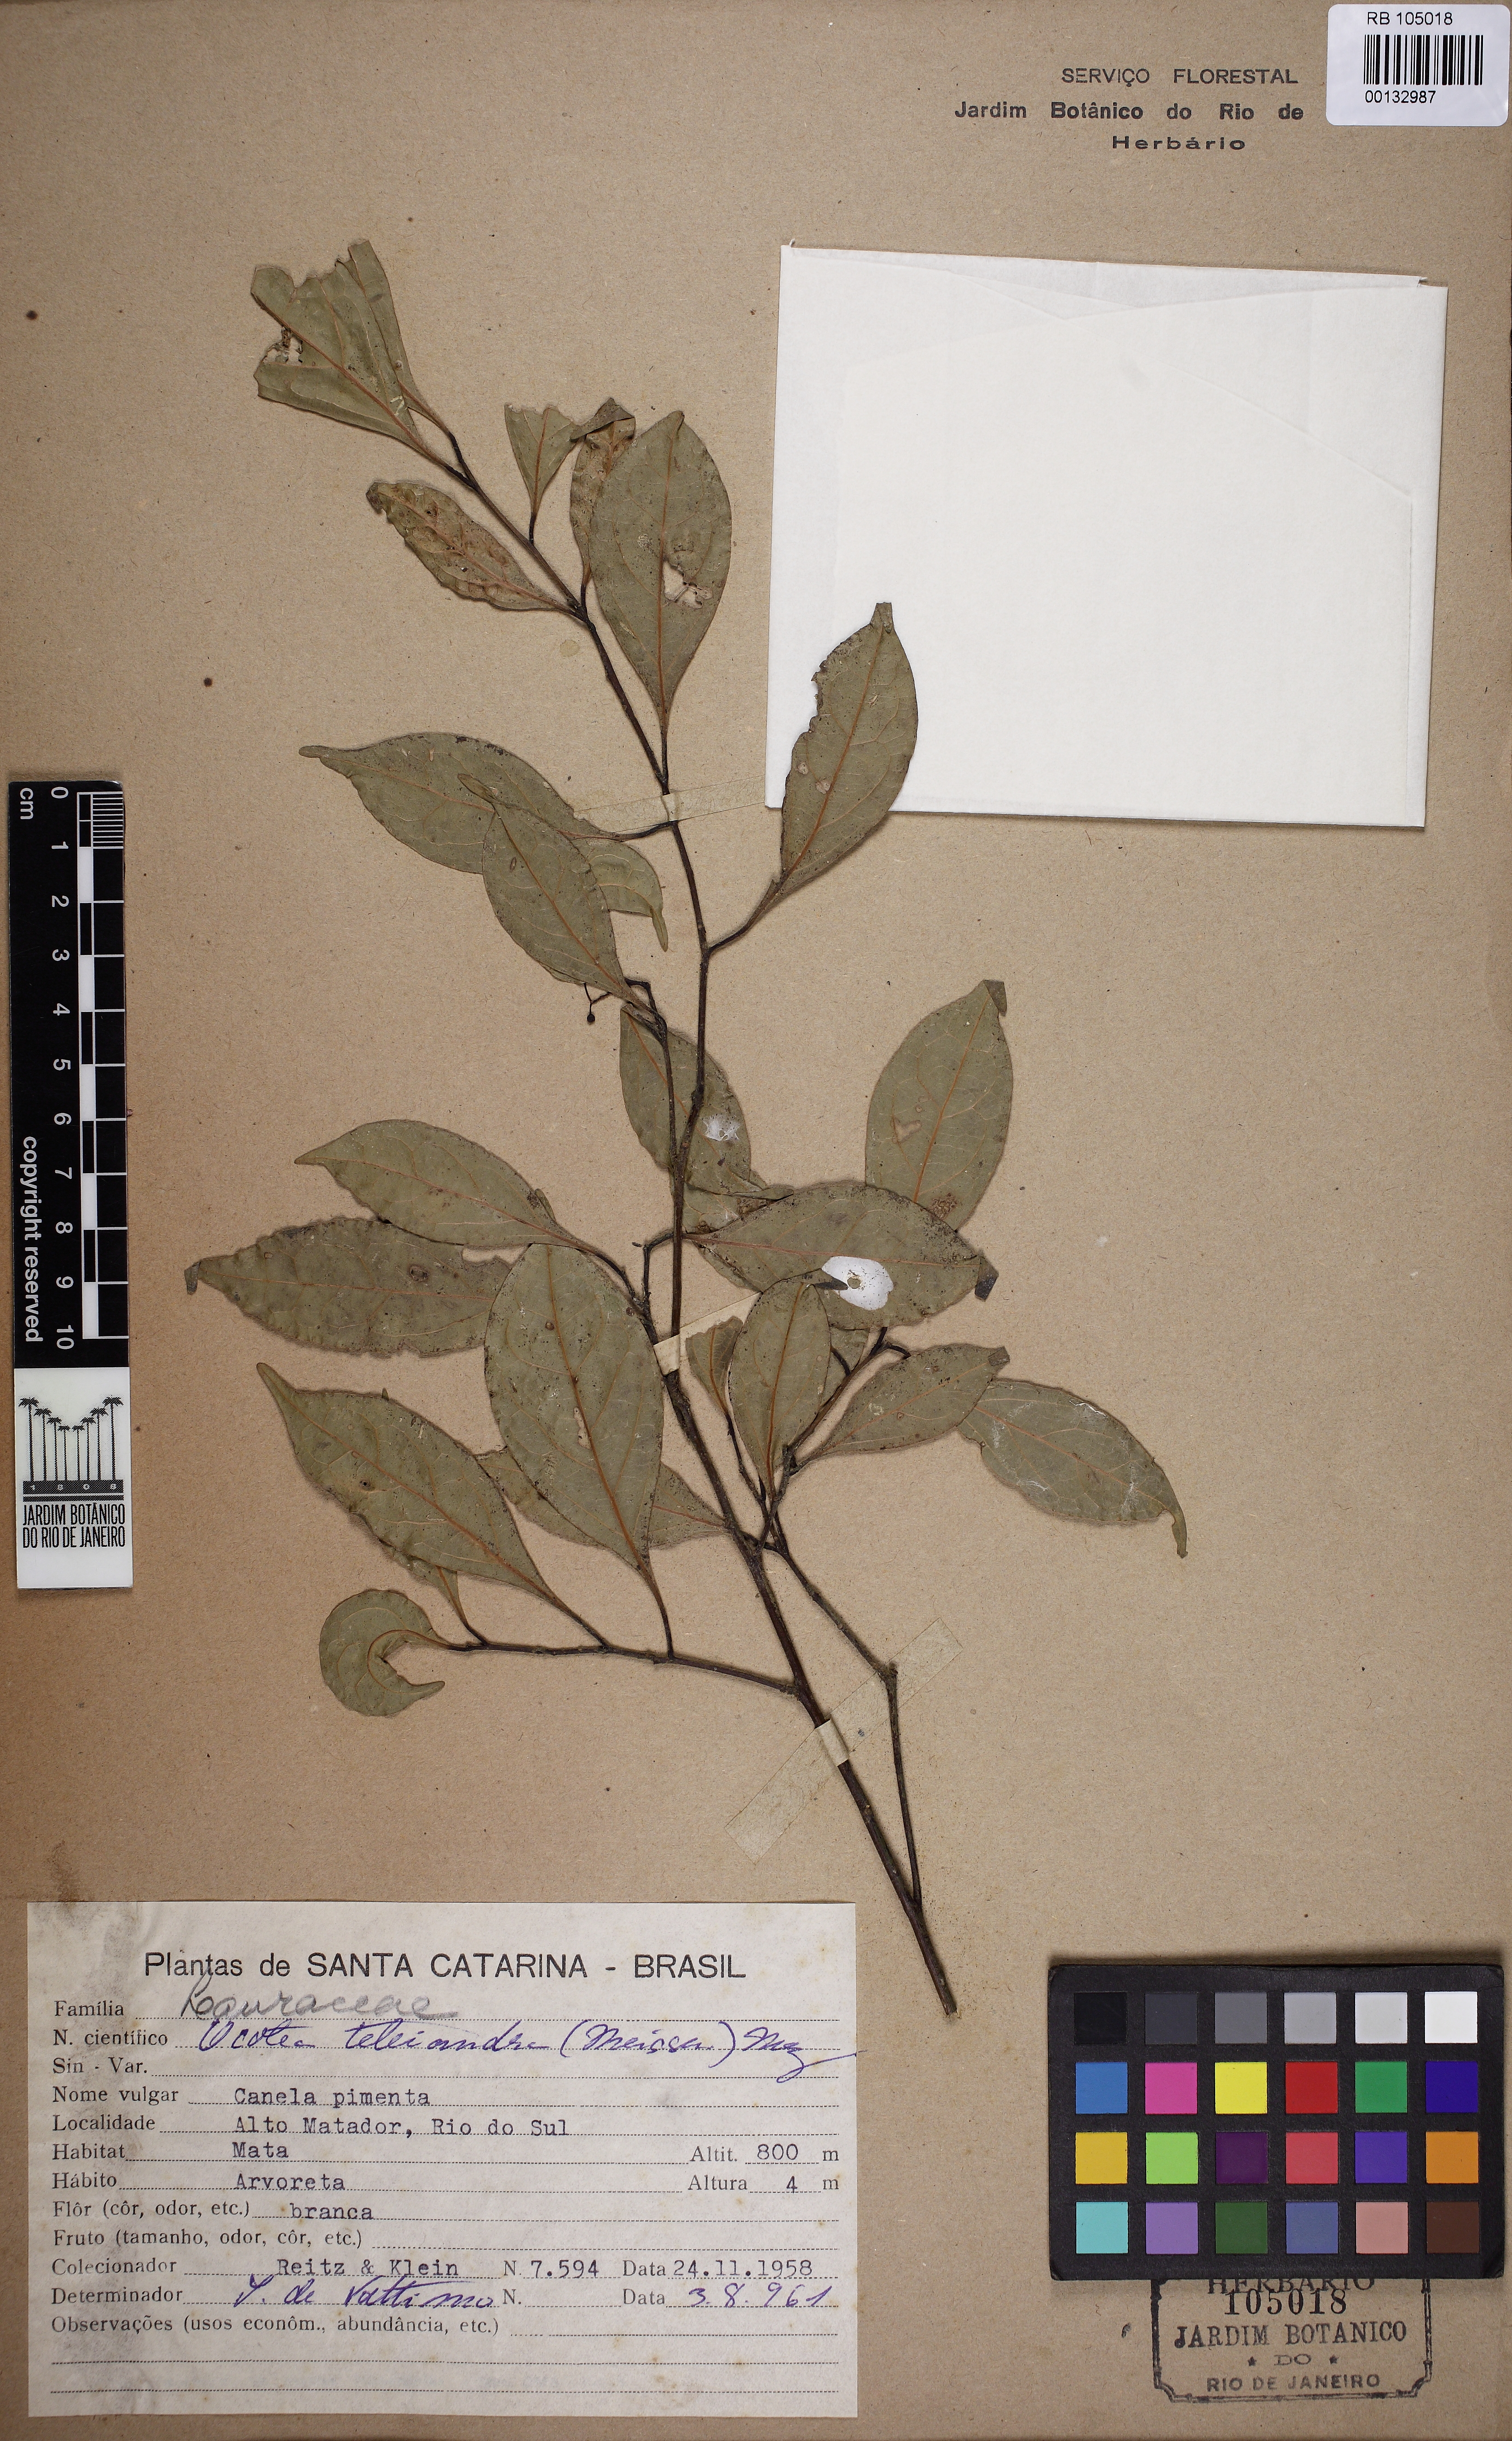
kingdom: Plantae
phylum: Tracheophyta
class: Magnoliopsida
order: Laurales
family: Lauraceae
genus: Ocotea
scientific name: Ocotea teleiandra
